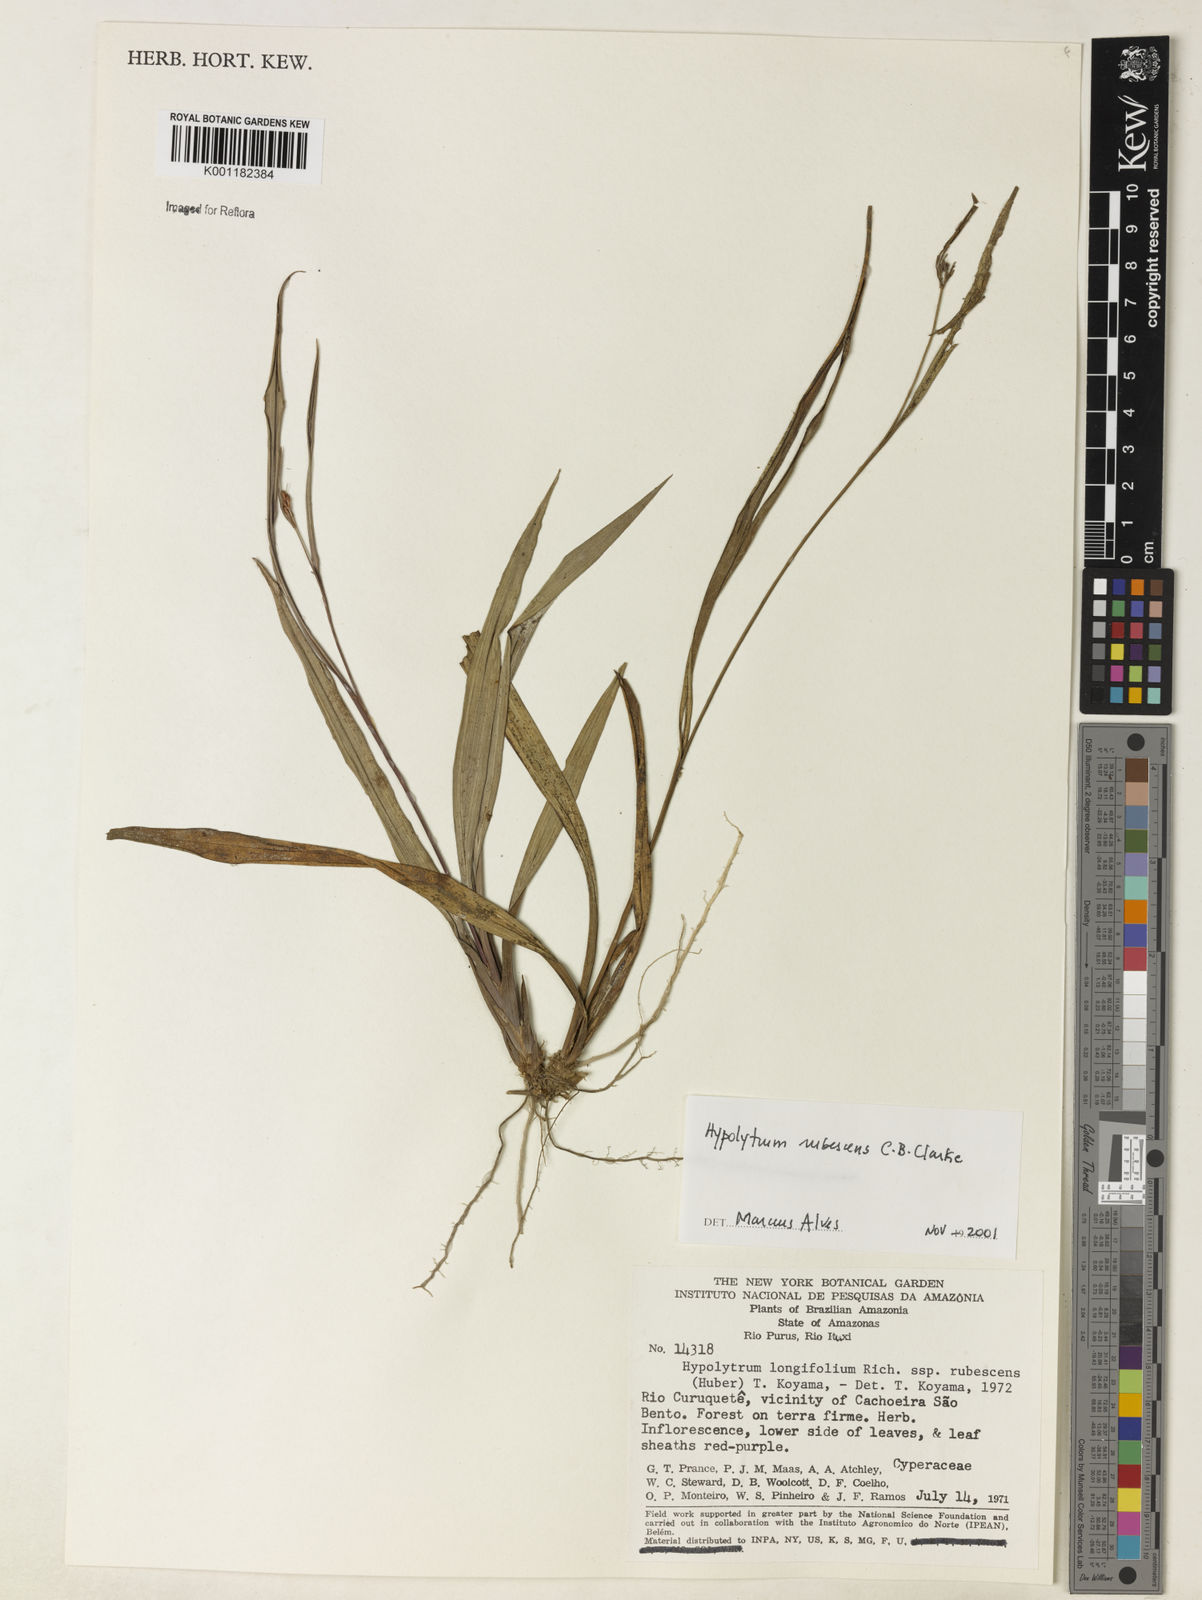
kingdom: Plantae
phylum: Tracheophyta
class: Liliopsida
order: Poales
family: Cyperaceae
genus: Hypolytrum
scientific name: Hypolytrum longifolium
